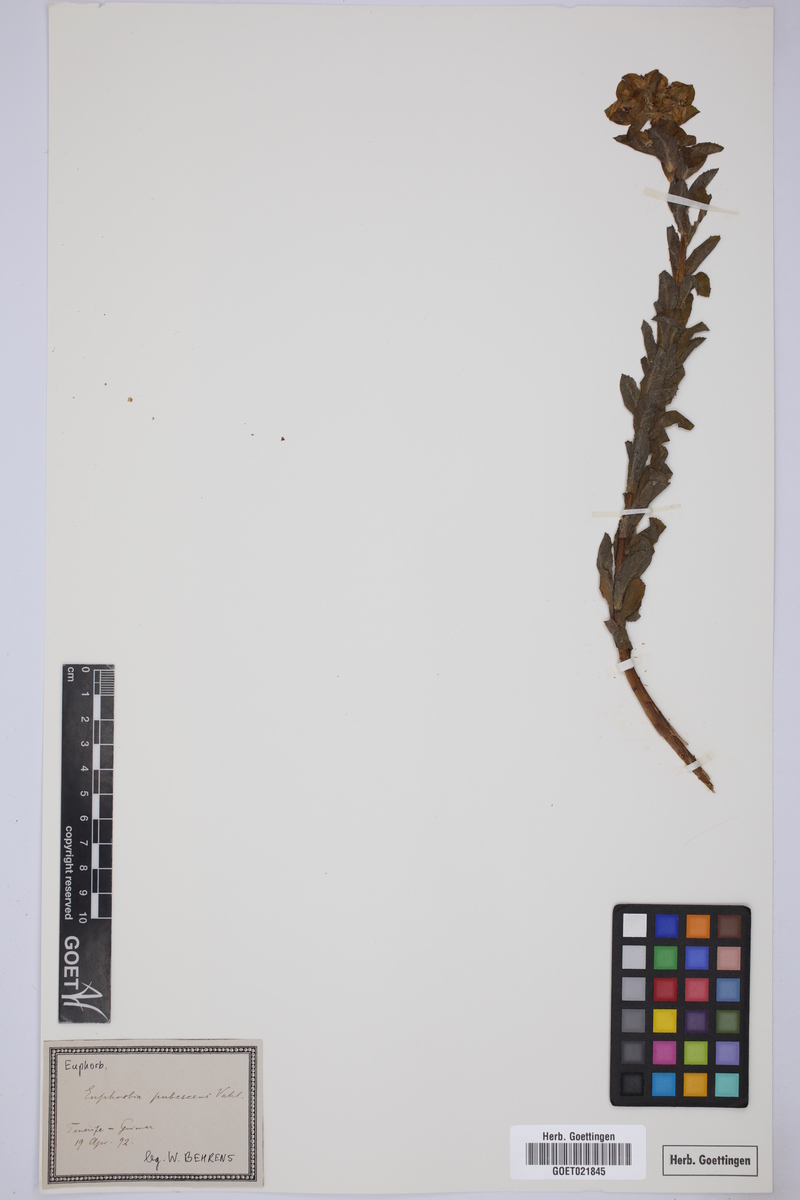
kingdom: Plantae
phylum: Tracheophyta
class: Magnoliopsida
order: Malpighiales
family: Euphorbiaceae
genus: Euphorbia
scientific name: Euphorbia hirsuta
